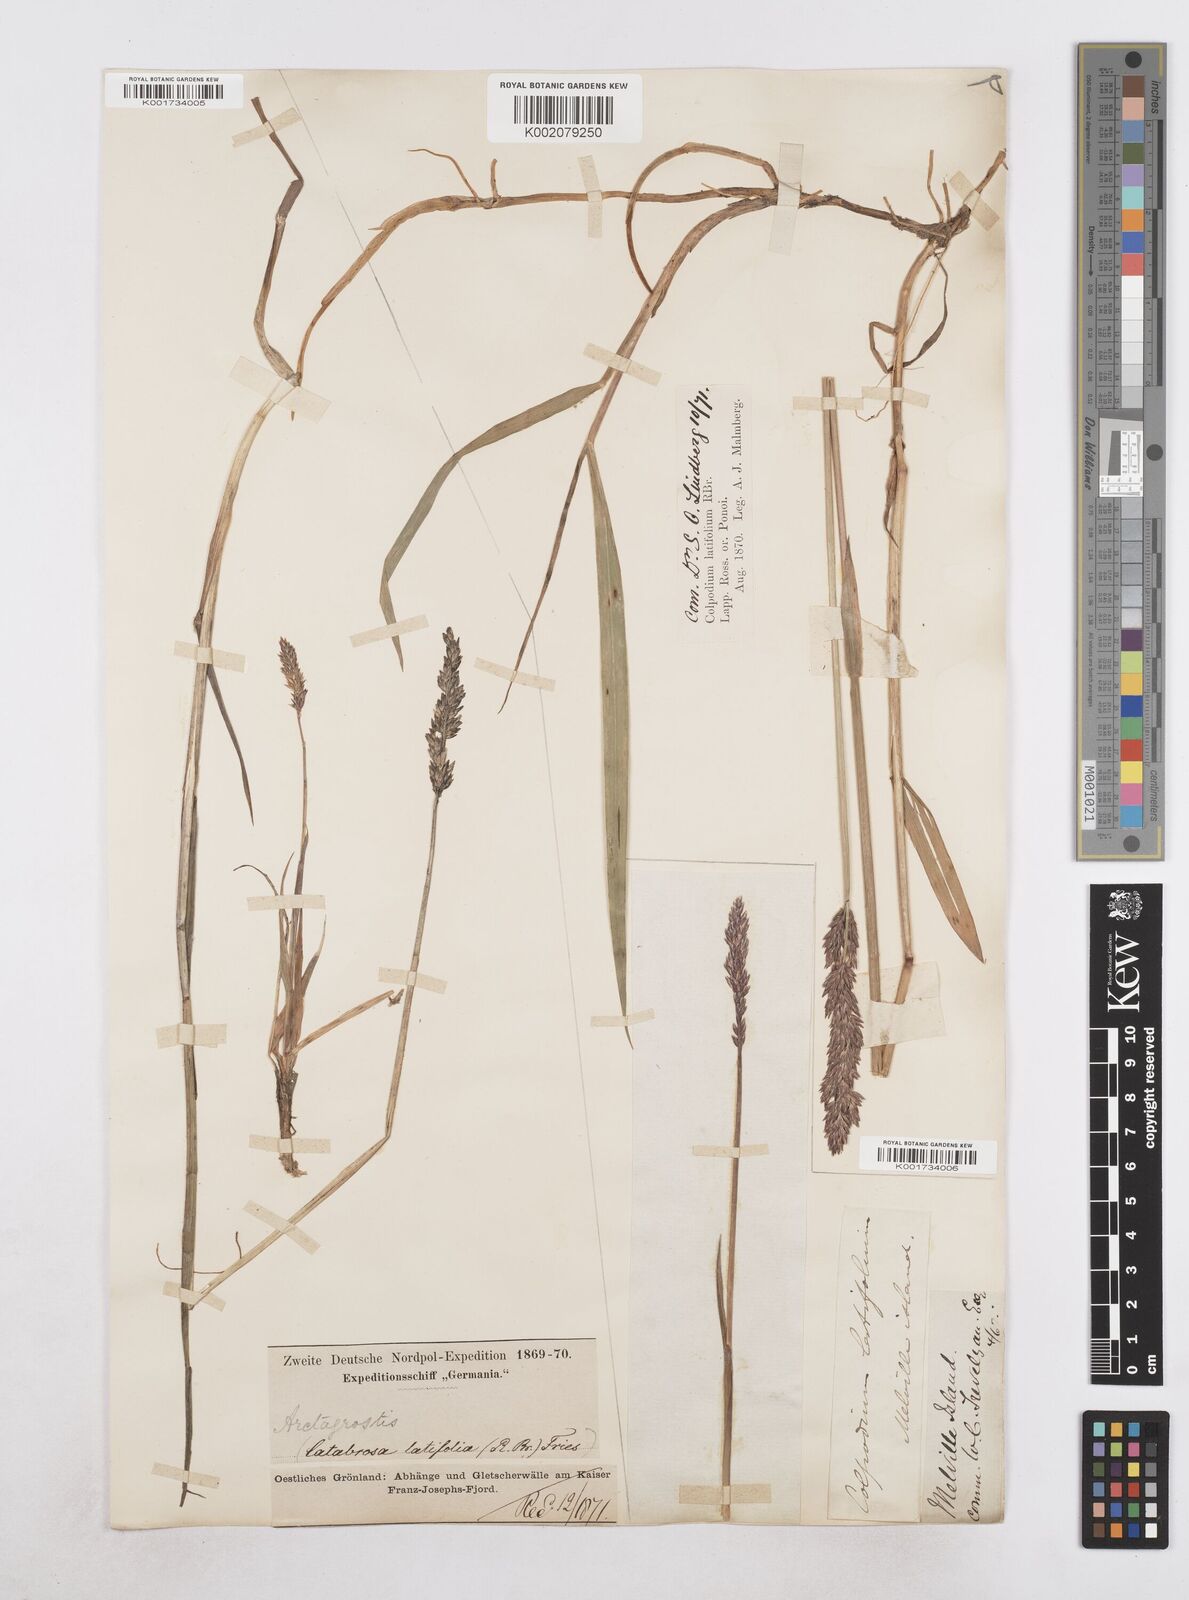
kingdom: Plantae
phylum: Tracheophyta
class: Liliopsida
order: Poales
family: Poaceae
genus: Arctagrostis
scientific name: Arctagrostis latifolia
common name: Arctic grass
